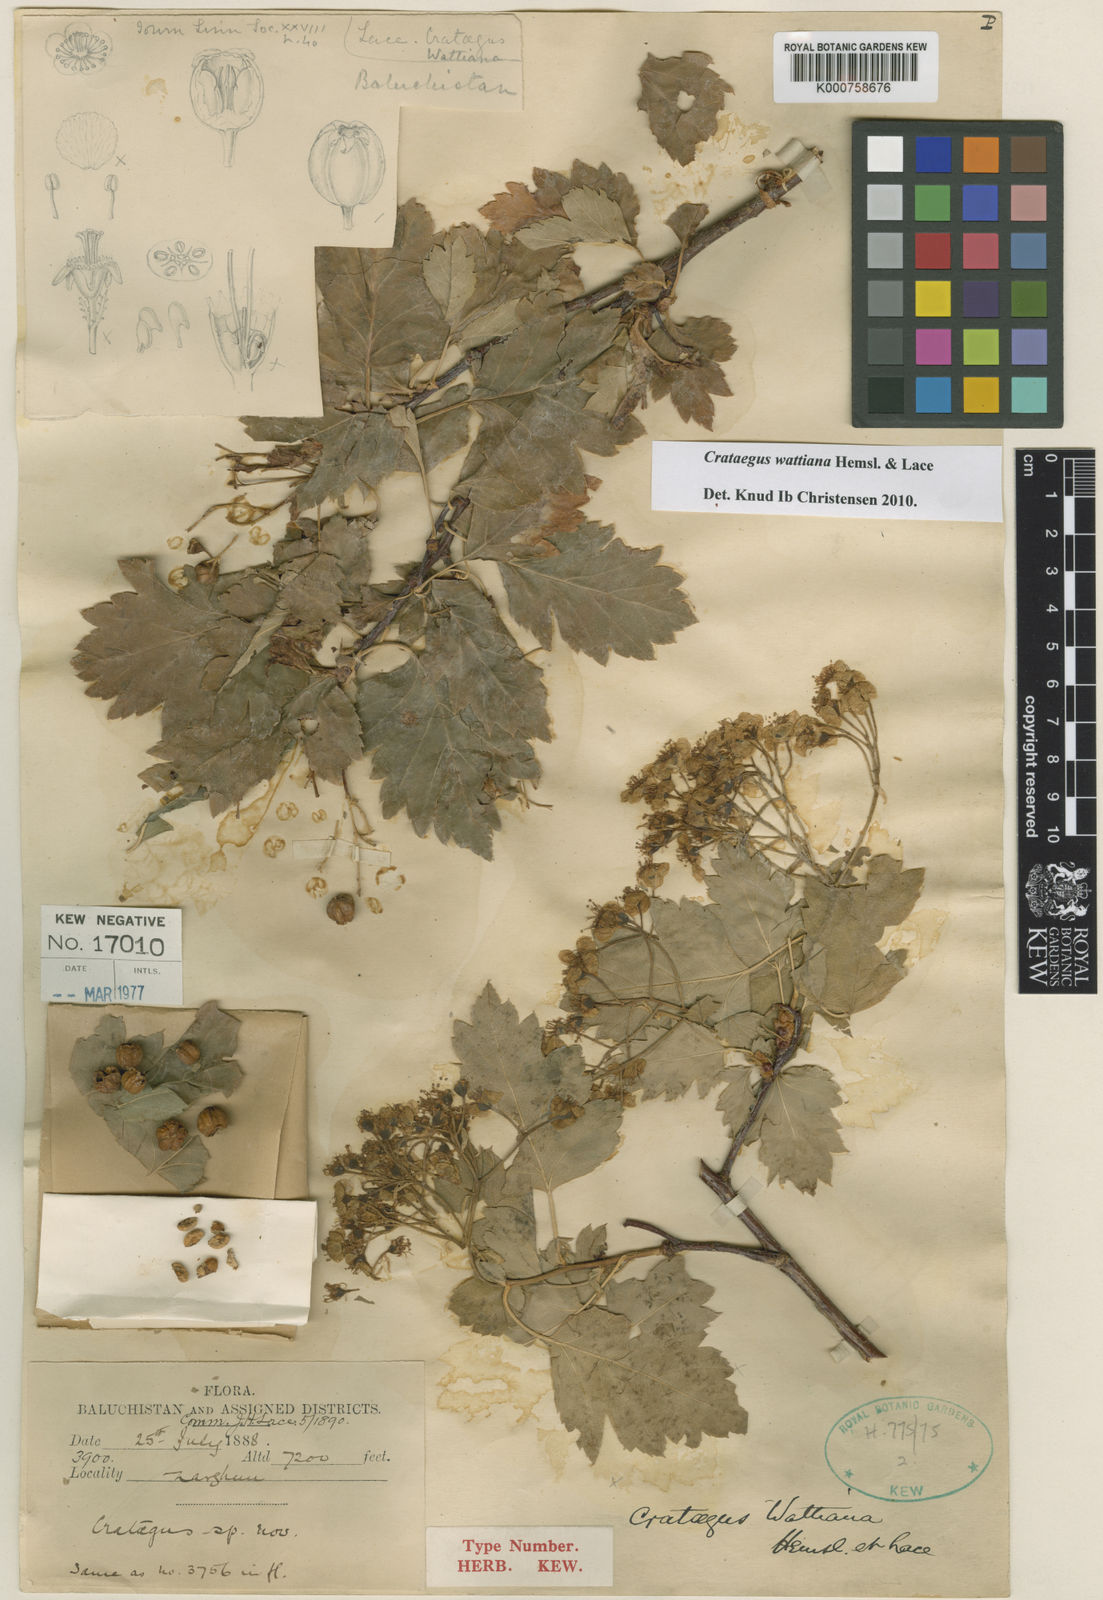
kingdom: Plantae
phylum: Tracheophyta
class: Magnoliopsida
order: Rosales
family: Rosaceae
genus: Crataegus
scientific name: Crataegus chlorocarpa
